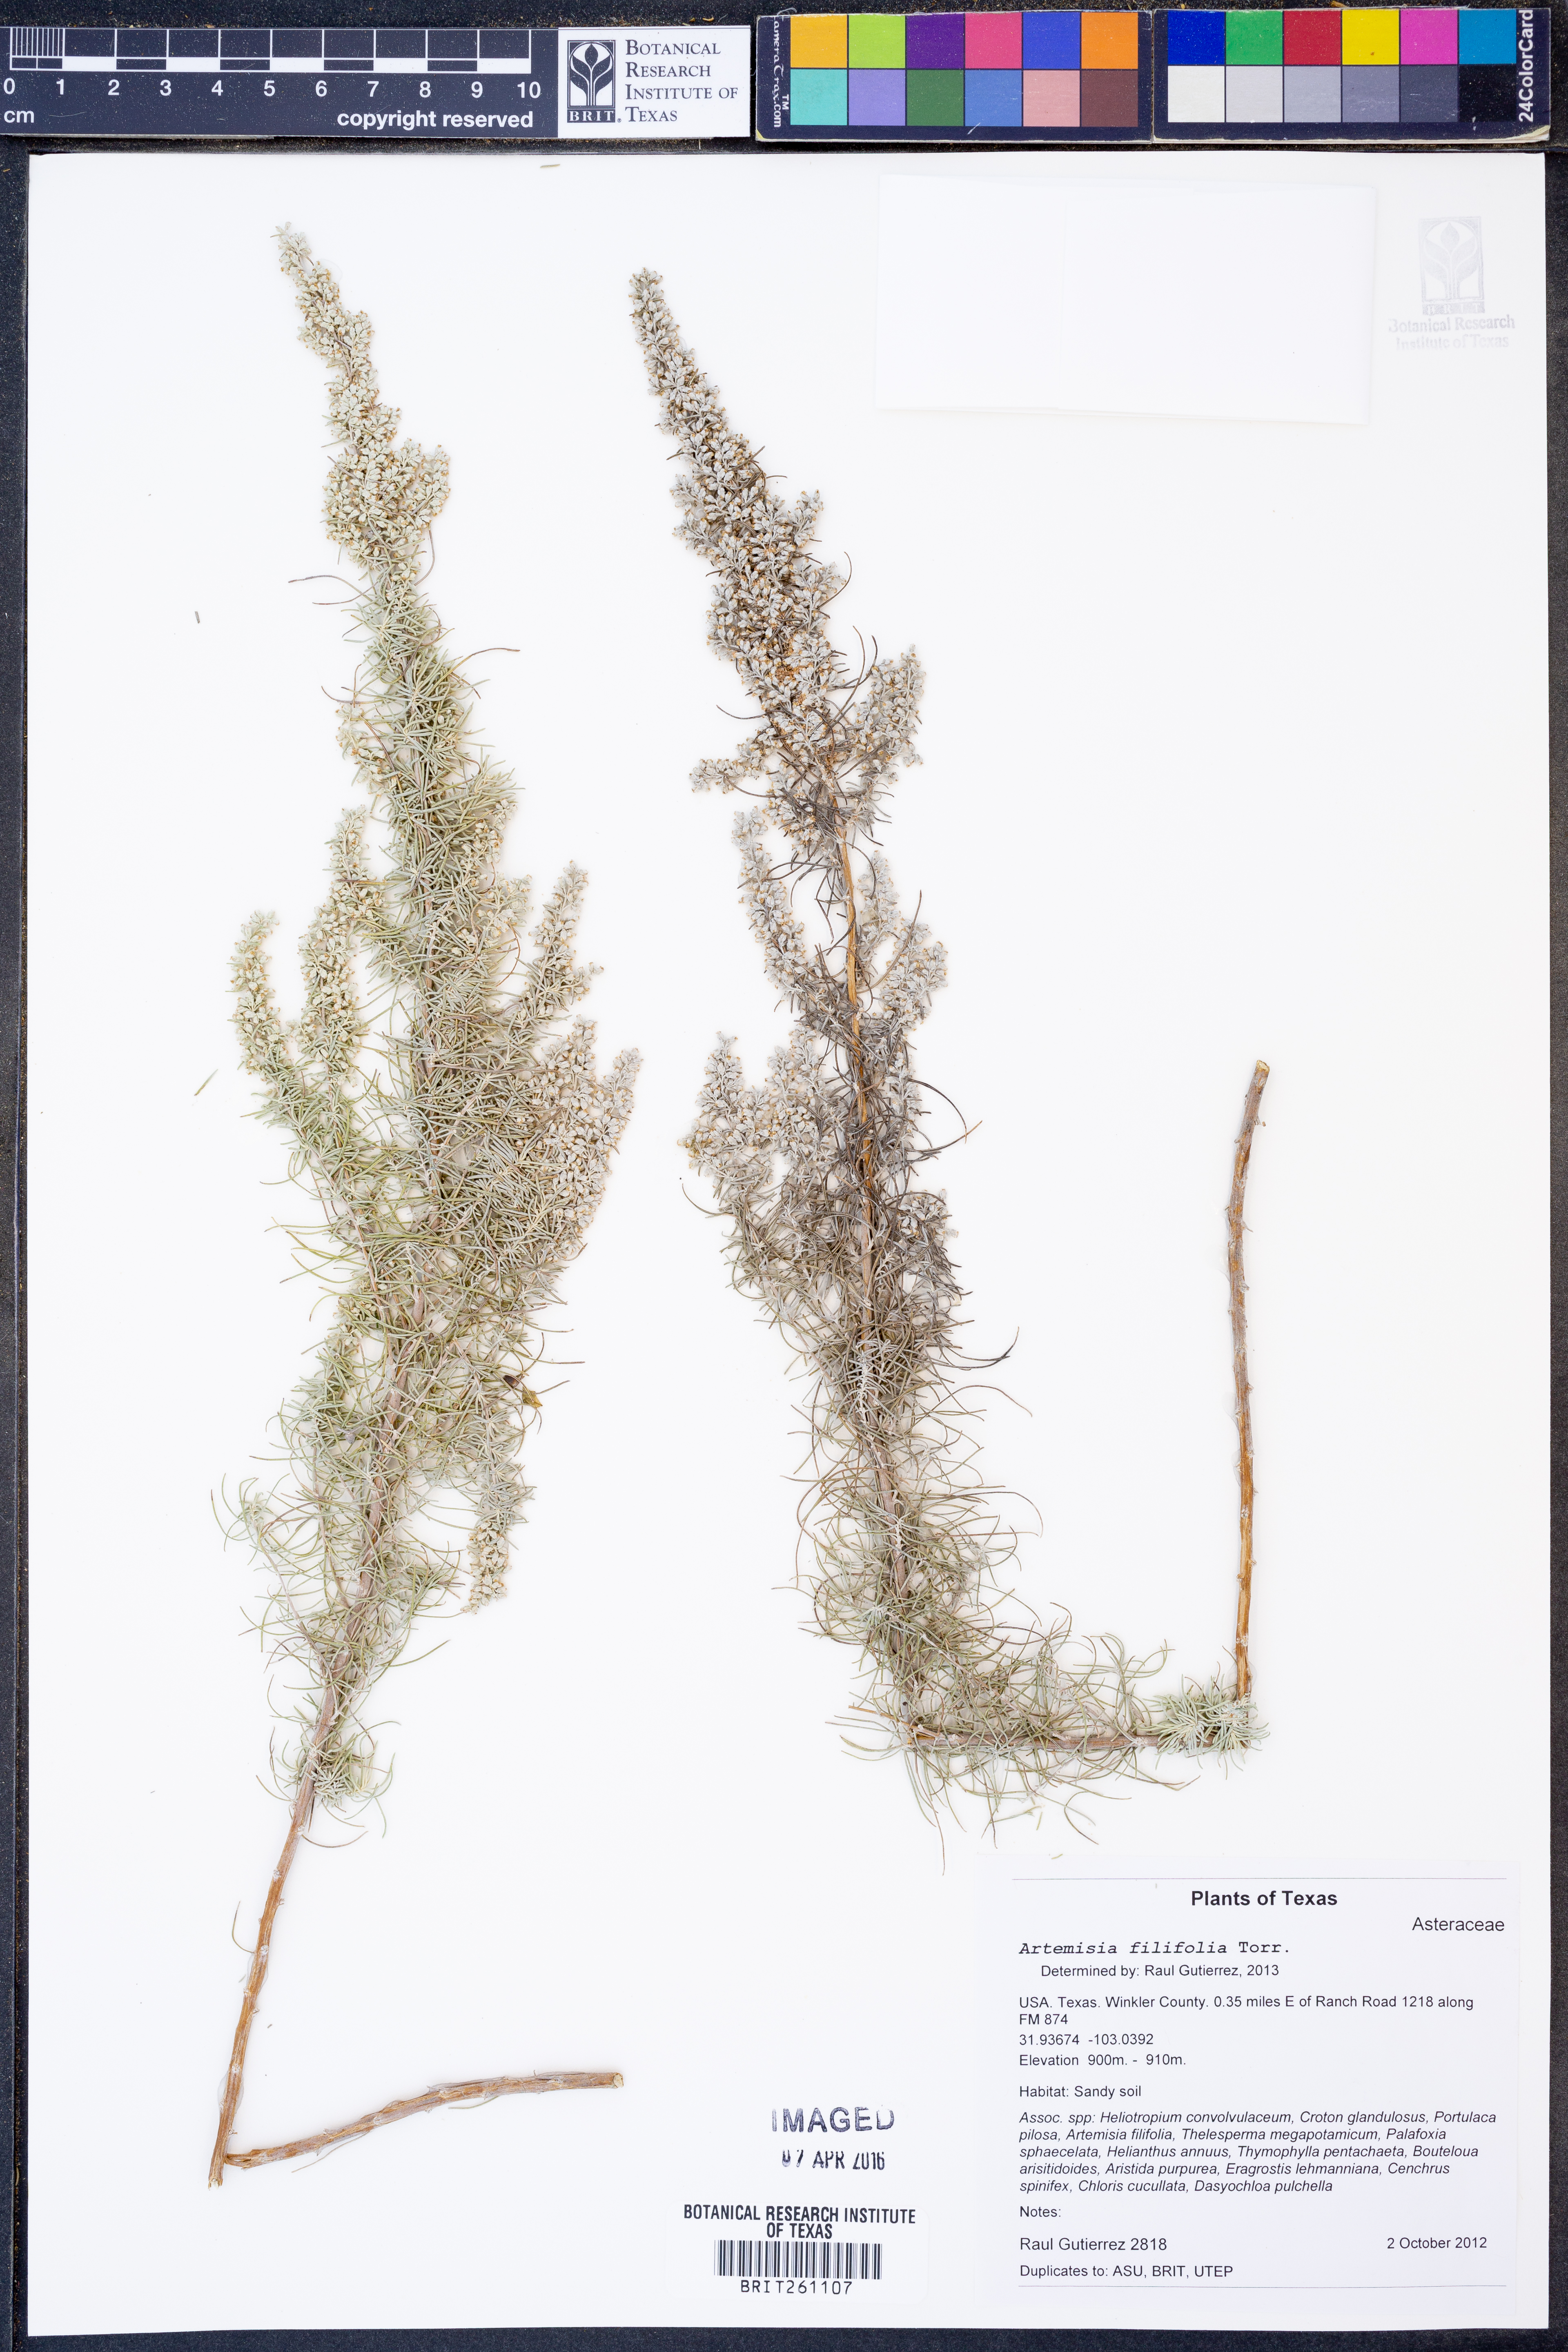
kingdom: Plantae
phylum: Tracheophyta
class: Magnoliopsida
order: Asterales
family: Asteraceae
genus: Artemisia
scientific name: Artemisia filifolia
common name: Sand-sage
